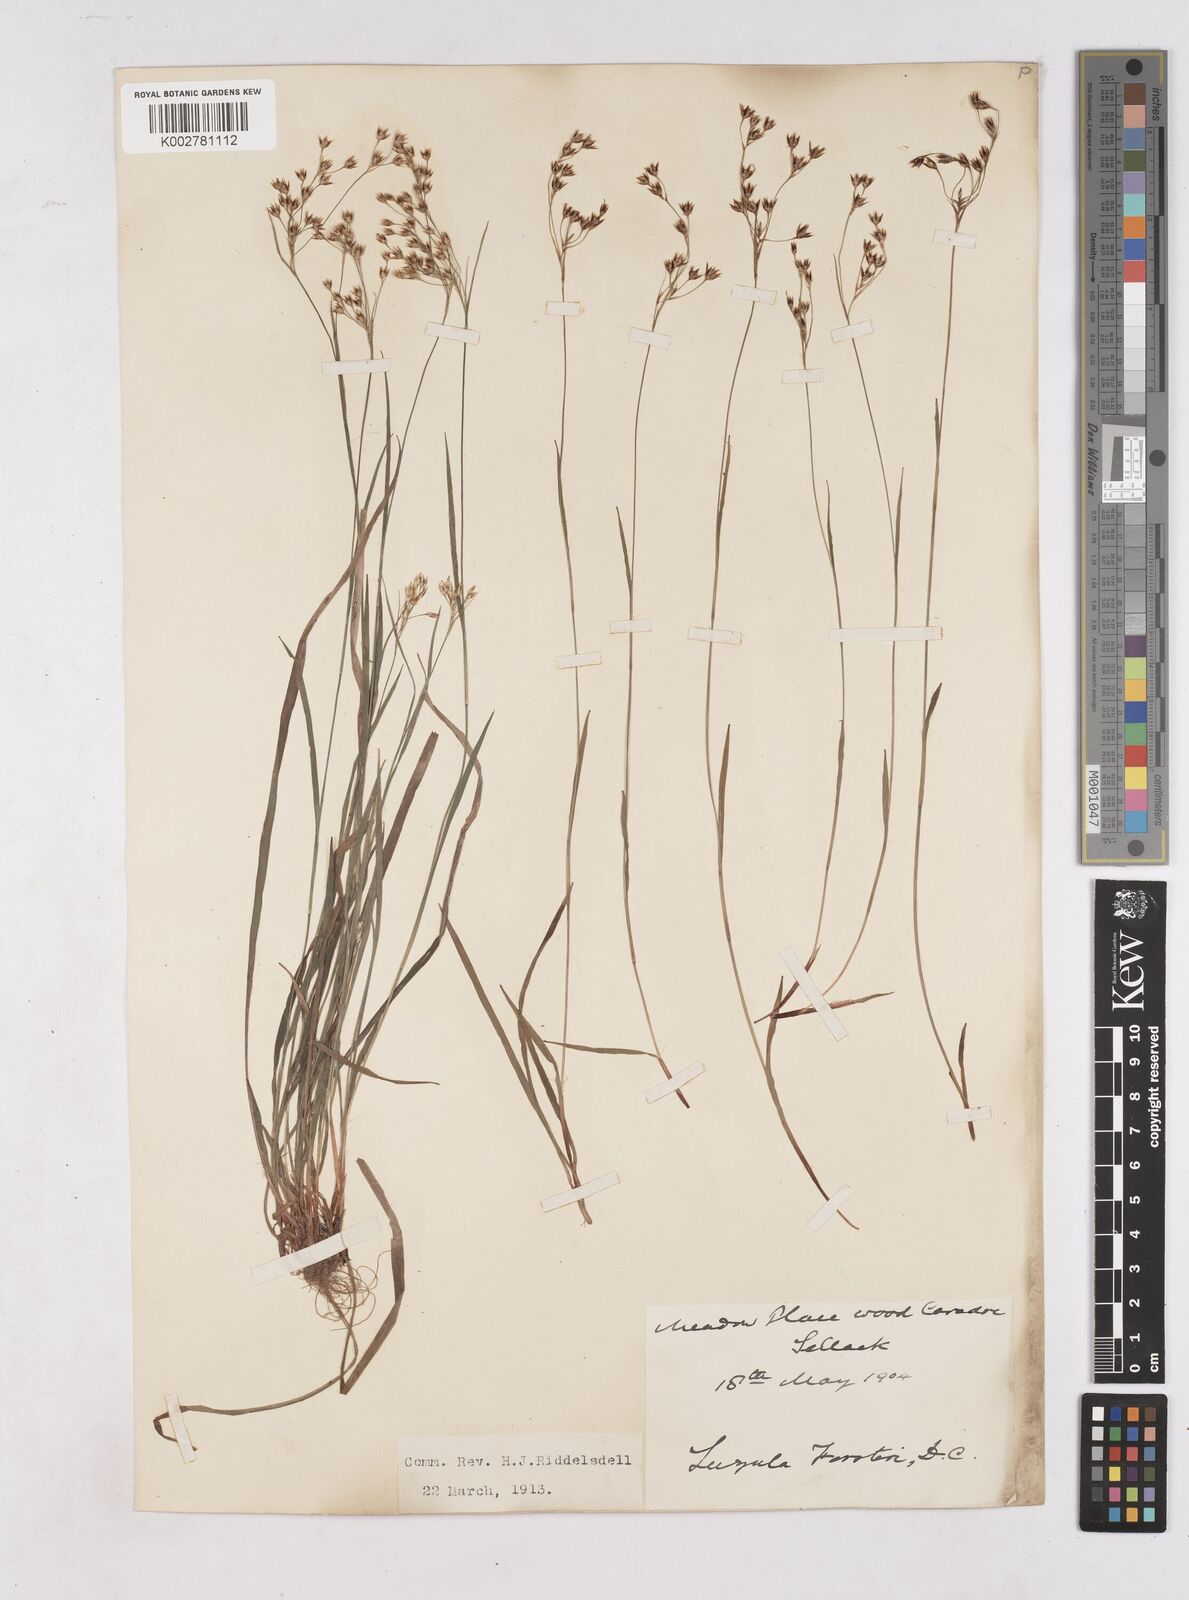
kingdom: Plantae
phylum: Tracheophyta
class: Liliopsida
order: Poales
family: Juncaceae
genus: Luzula
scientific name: Luzula forsteri
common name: Southern wood-rush
